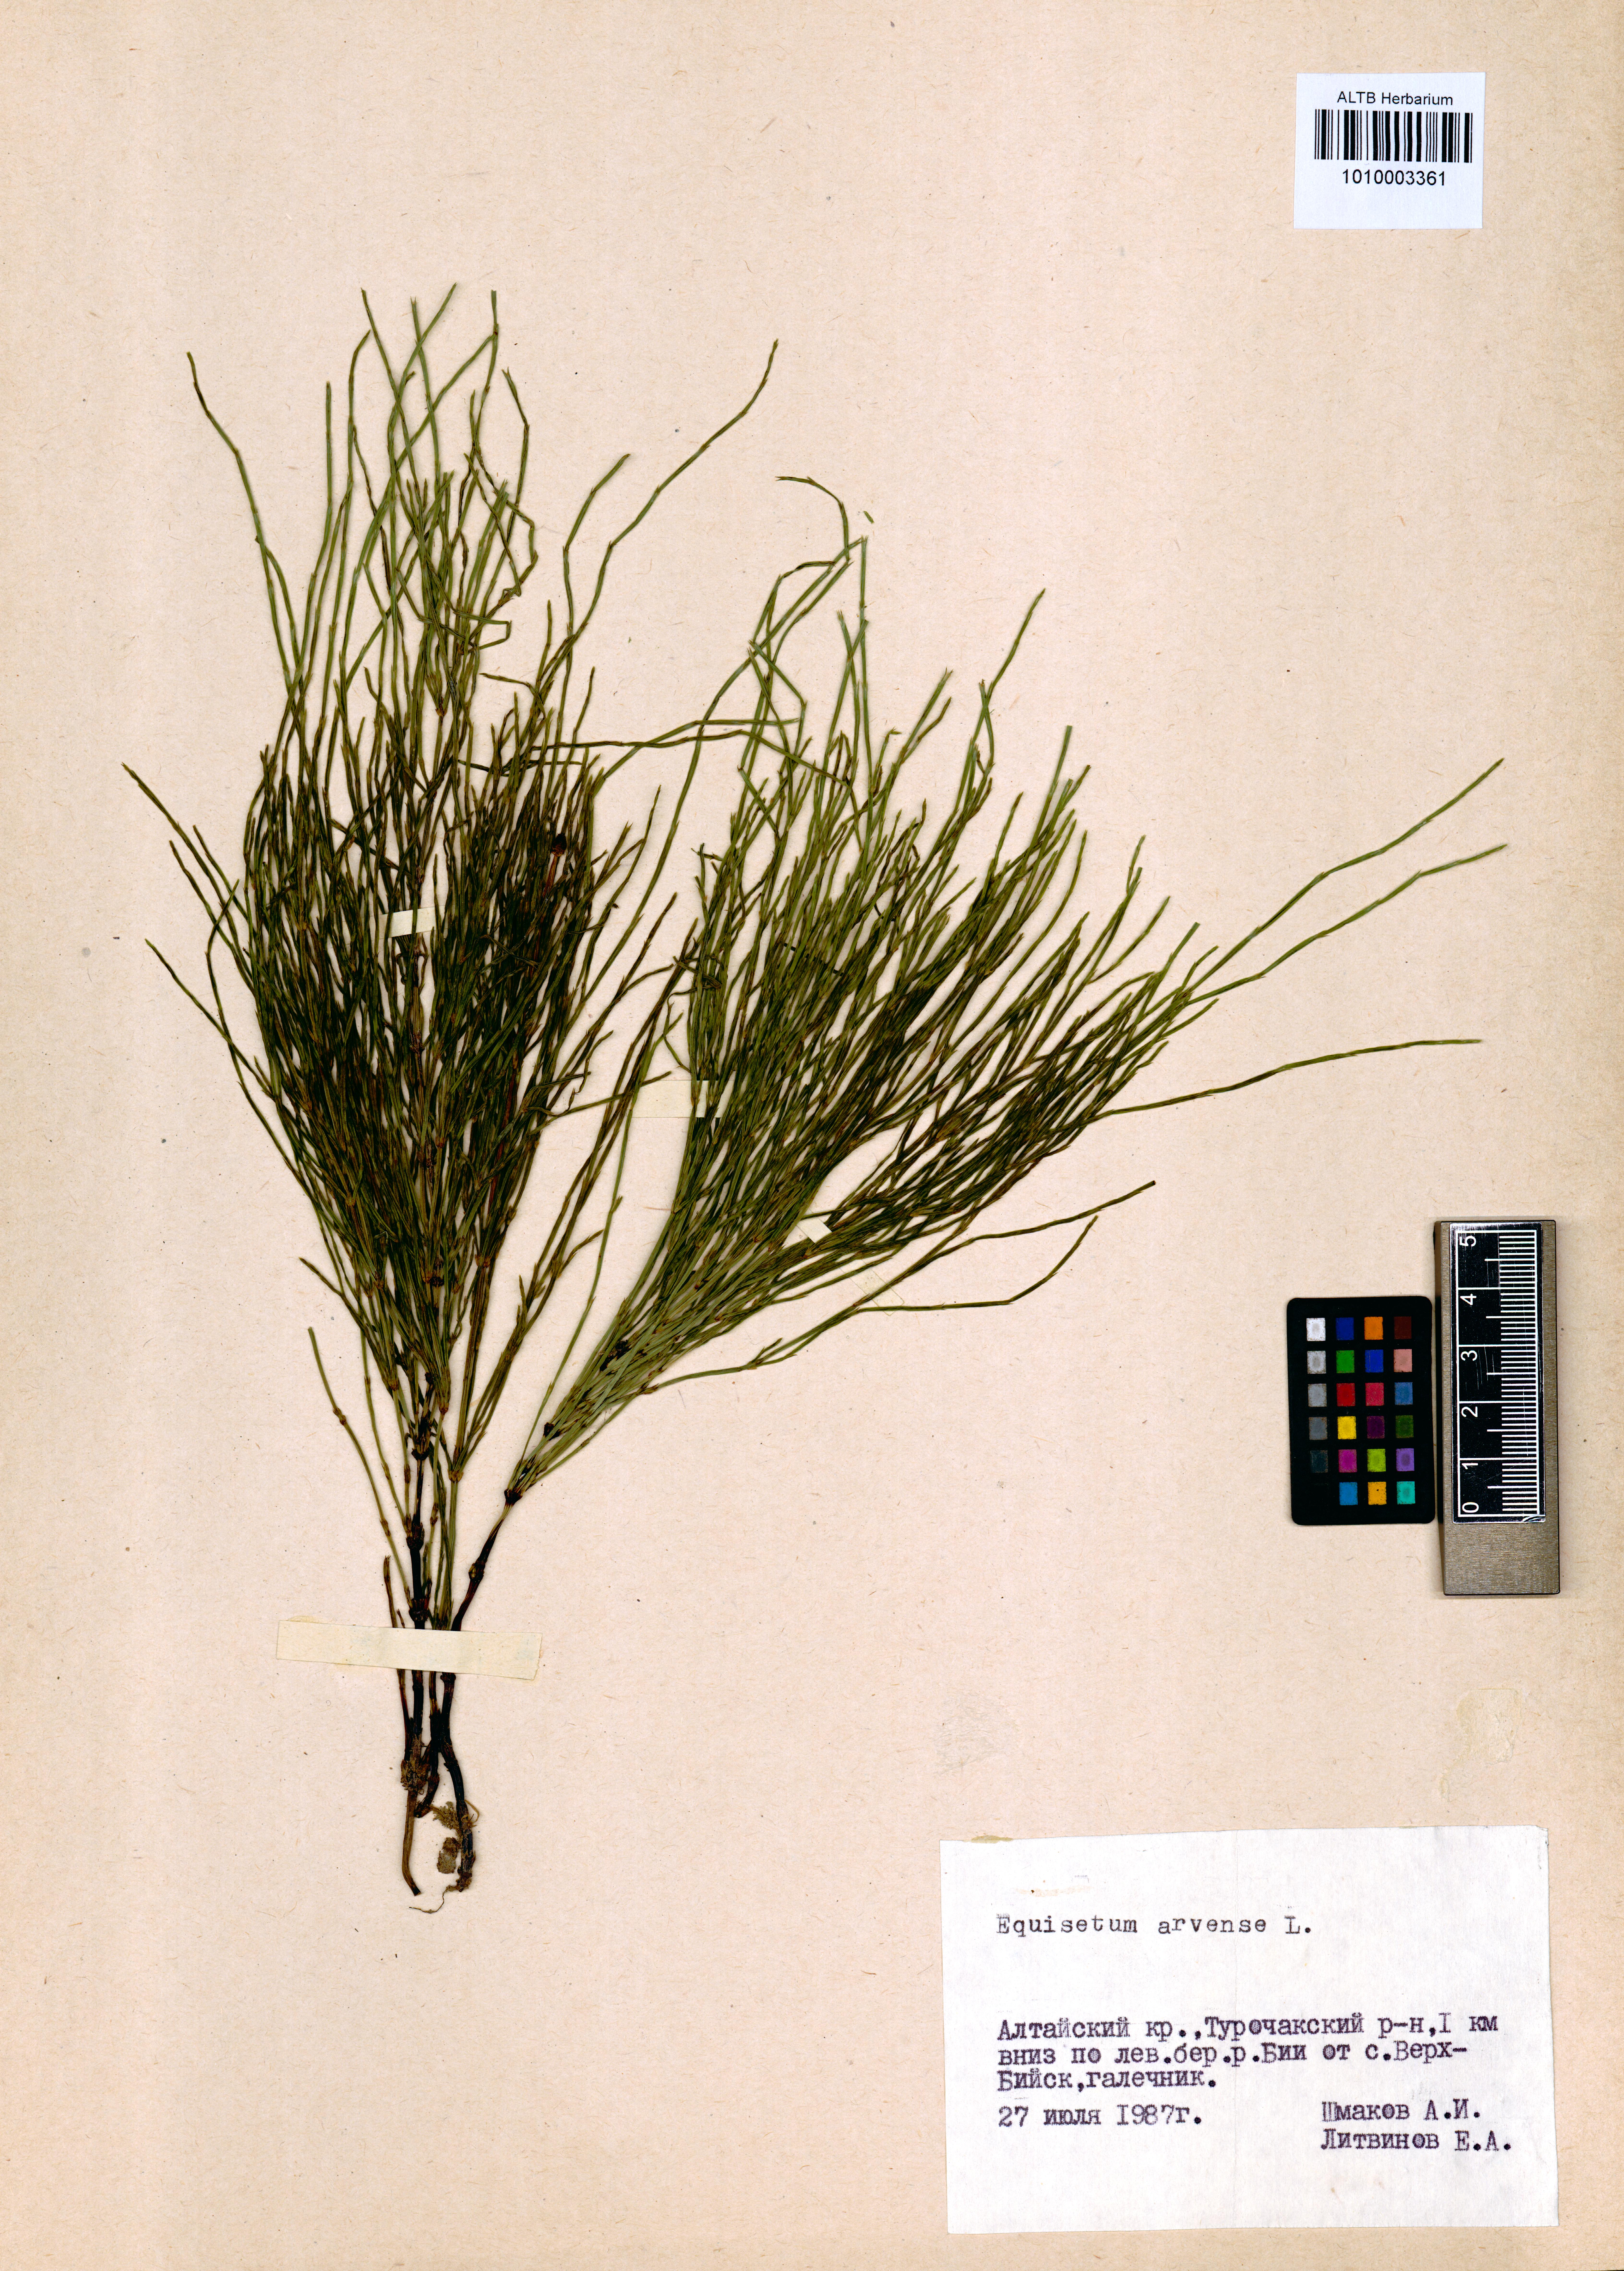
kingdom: Plantae
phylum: Tracheophyta
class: Polypodiopsida
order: Equisetales
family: Equisetaceae
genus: Equisetum
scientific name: Equisetum arvense
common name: Field horsetail
